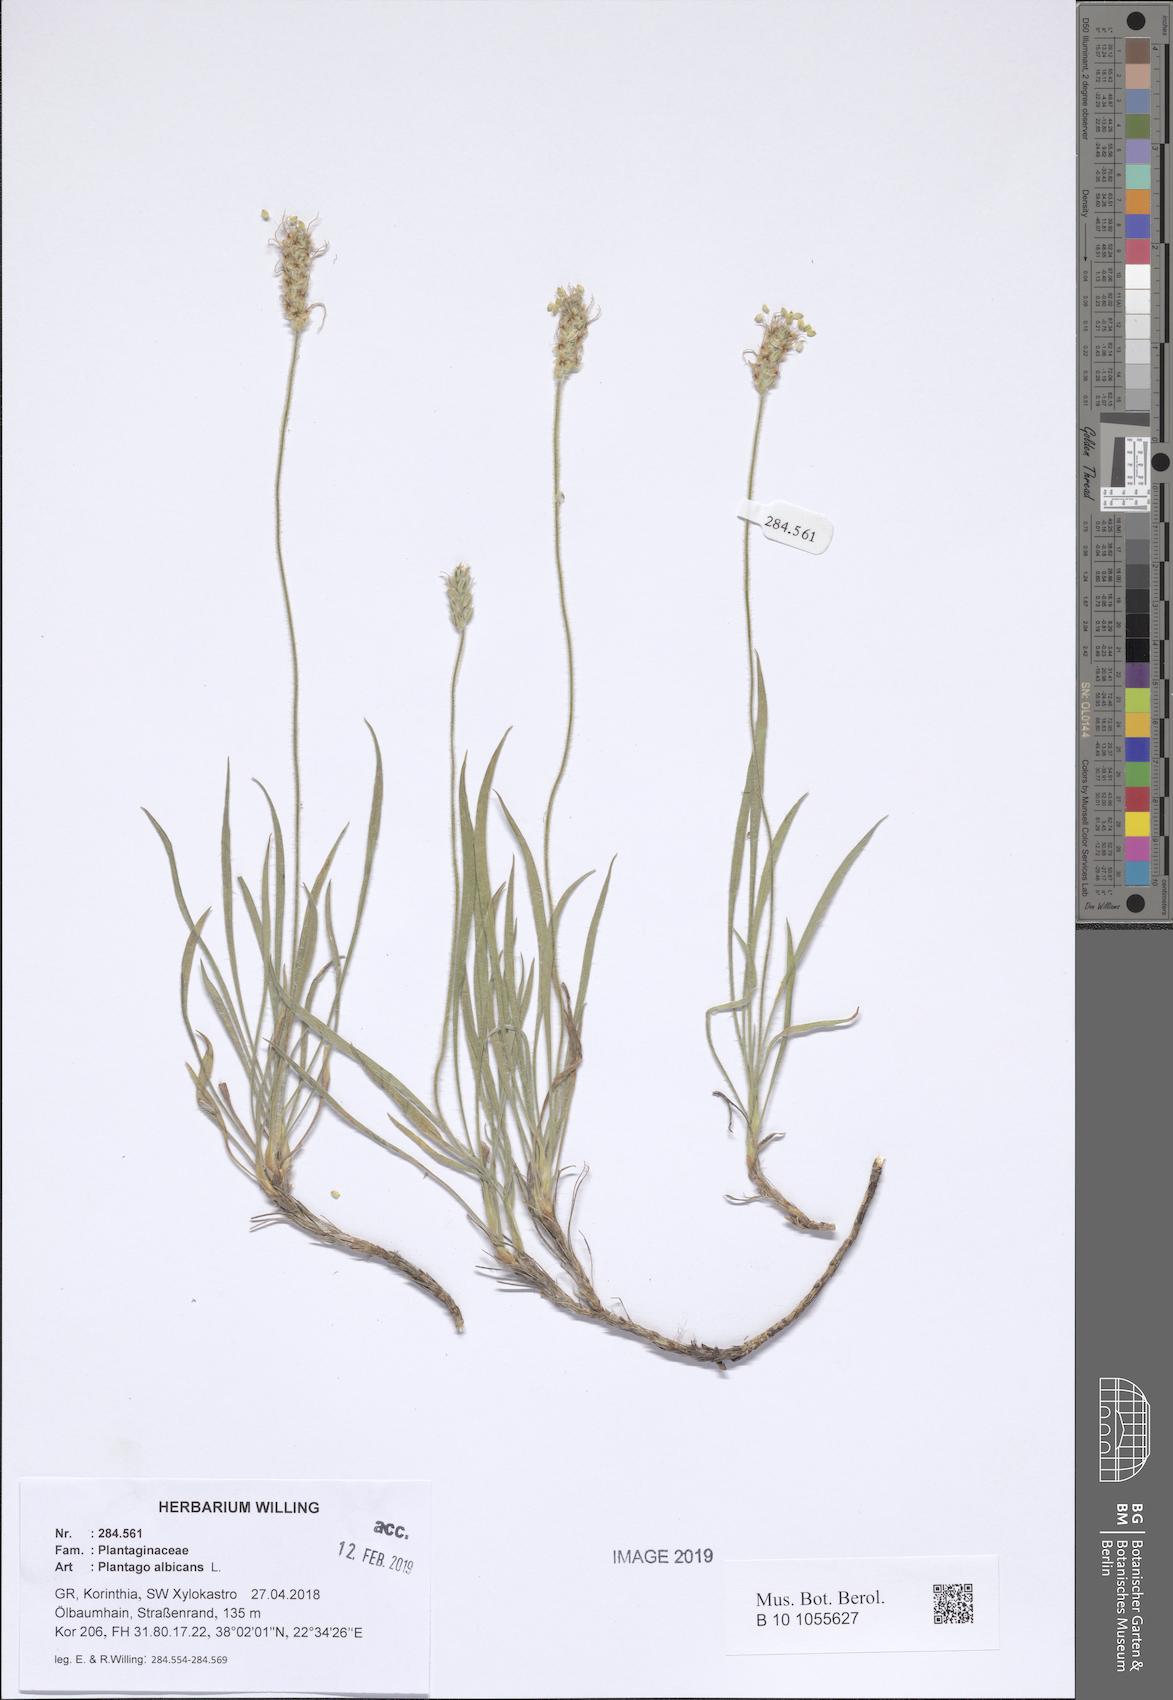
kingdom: Plantae
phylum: Tracheophyta
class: Magnoliopsida
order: Lamiales
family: Plantaginaceae
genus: Plantago
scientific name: Plantago albicans
